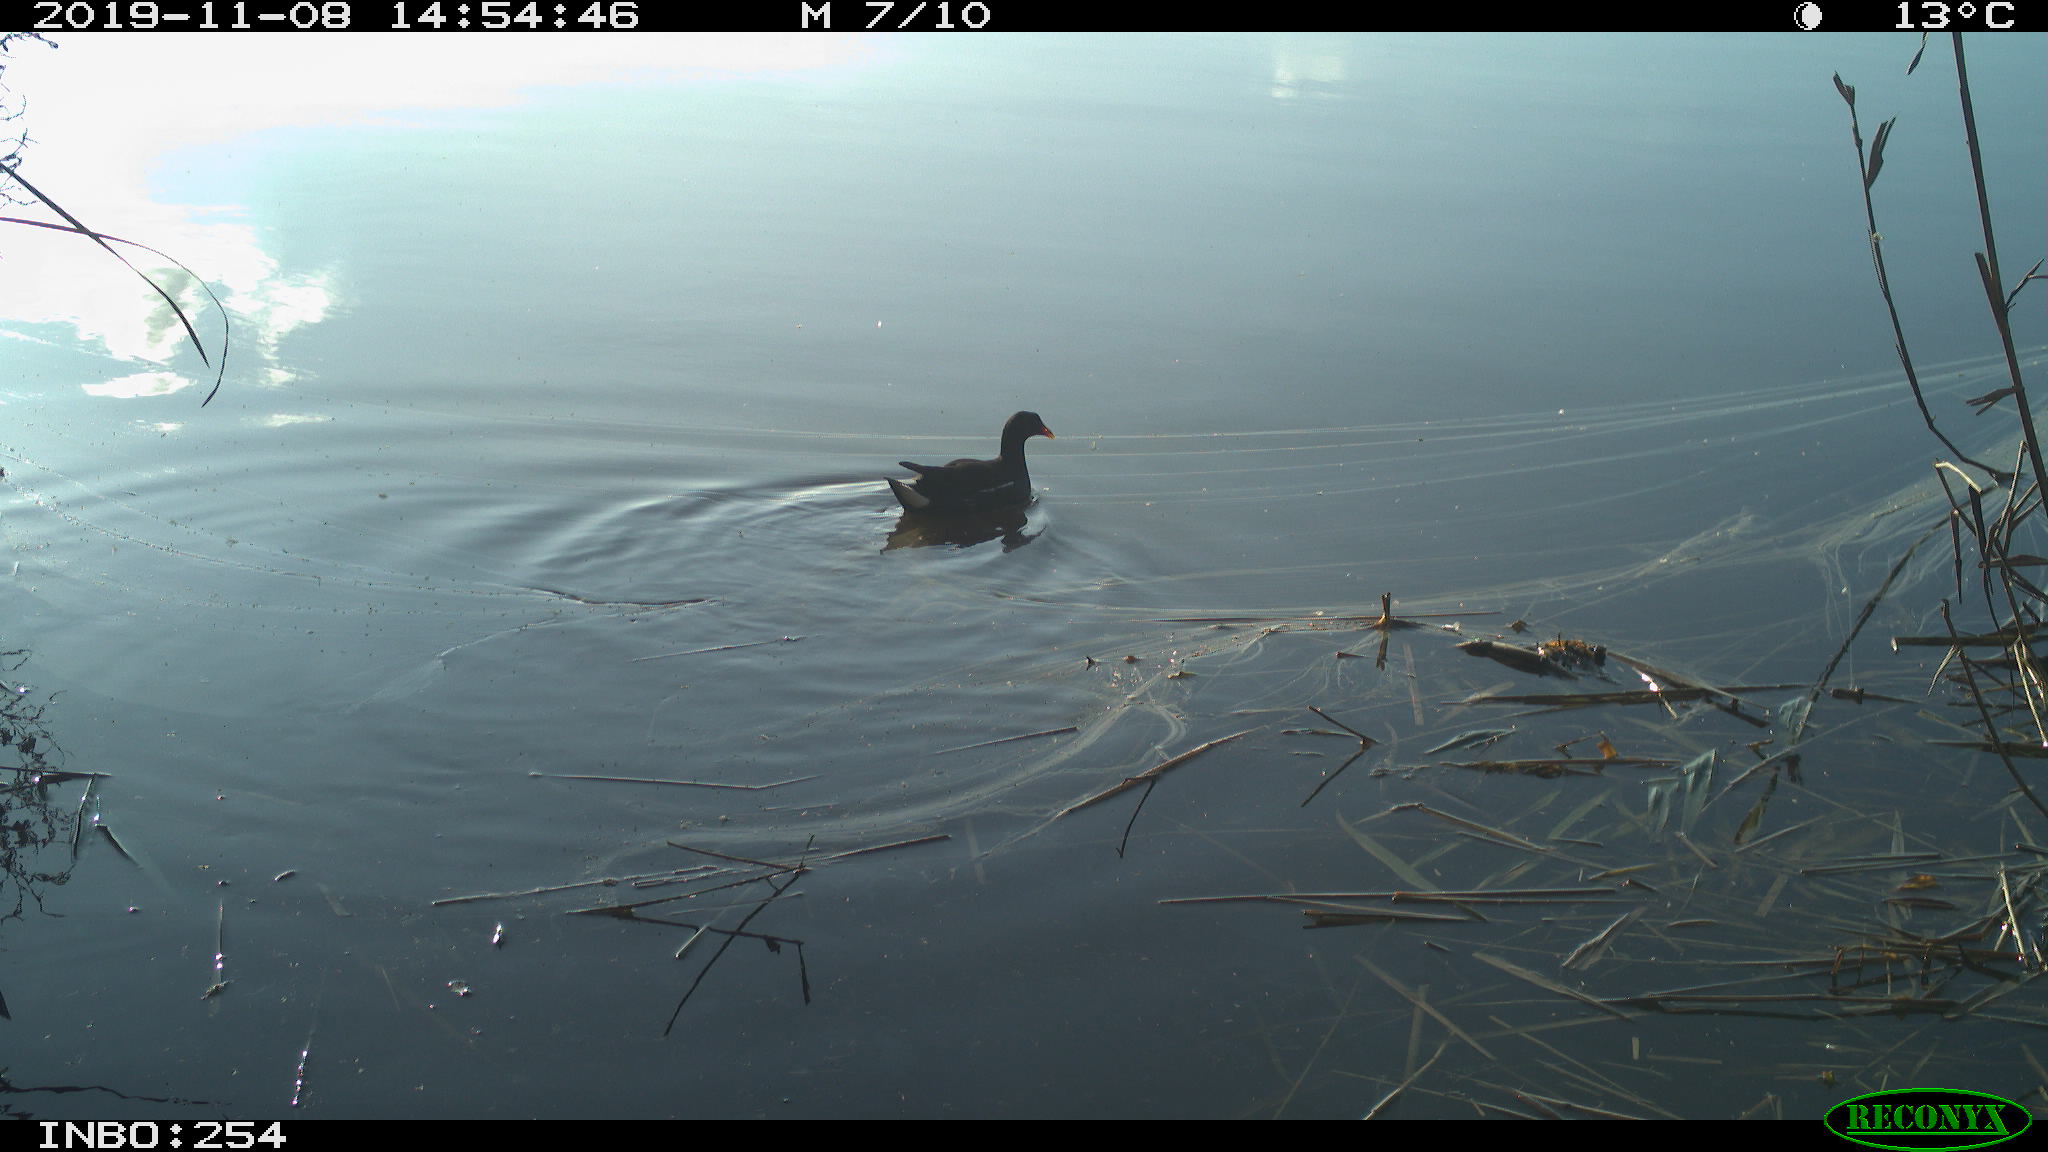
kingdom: Animalia
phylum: Chordata
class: Aves
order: Gruiformes
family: Rallidae
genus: Gallinula
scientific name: Gallinula chloropus
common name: Common moorhen
